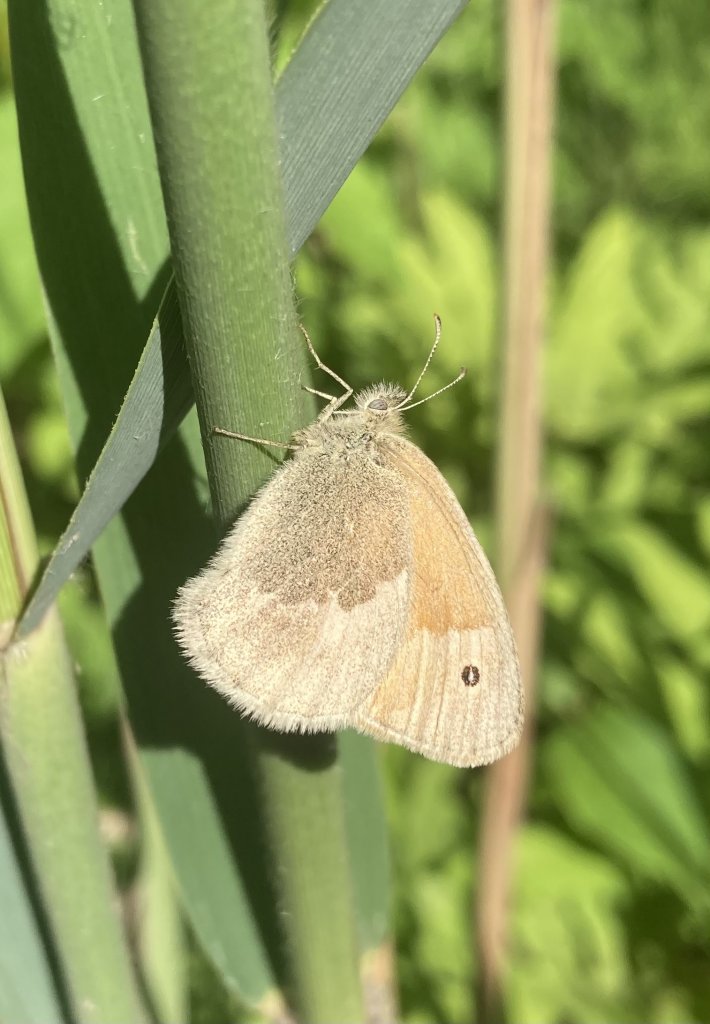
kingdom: Animalia
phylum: Arthropoda
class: Insecta
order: Lepidoptera
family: Nymphalidae
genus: Coenonympha
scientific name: Coenonympha tullia
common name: Large Heath
